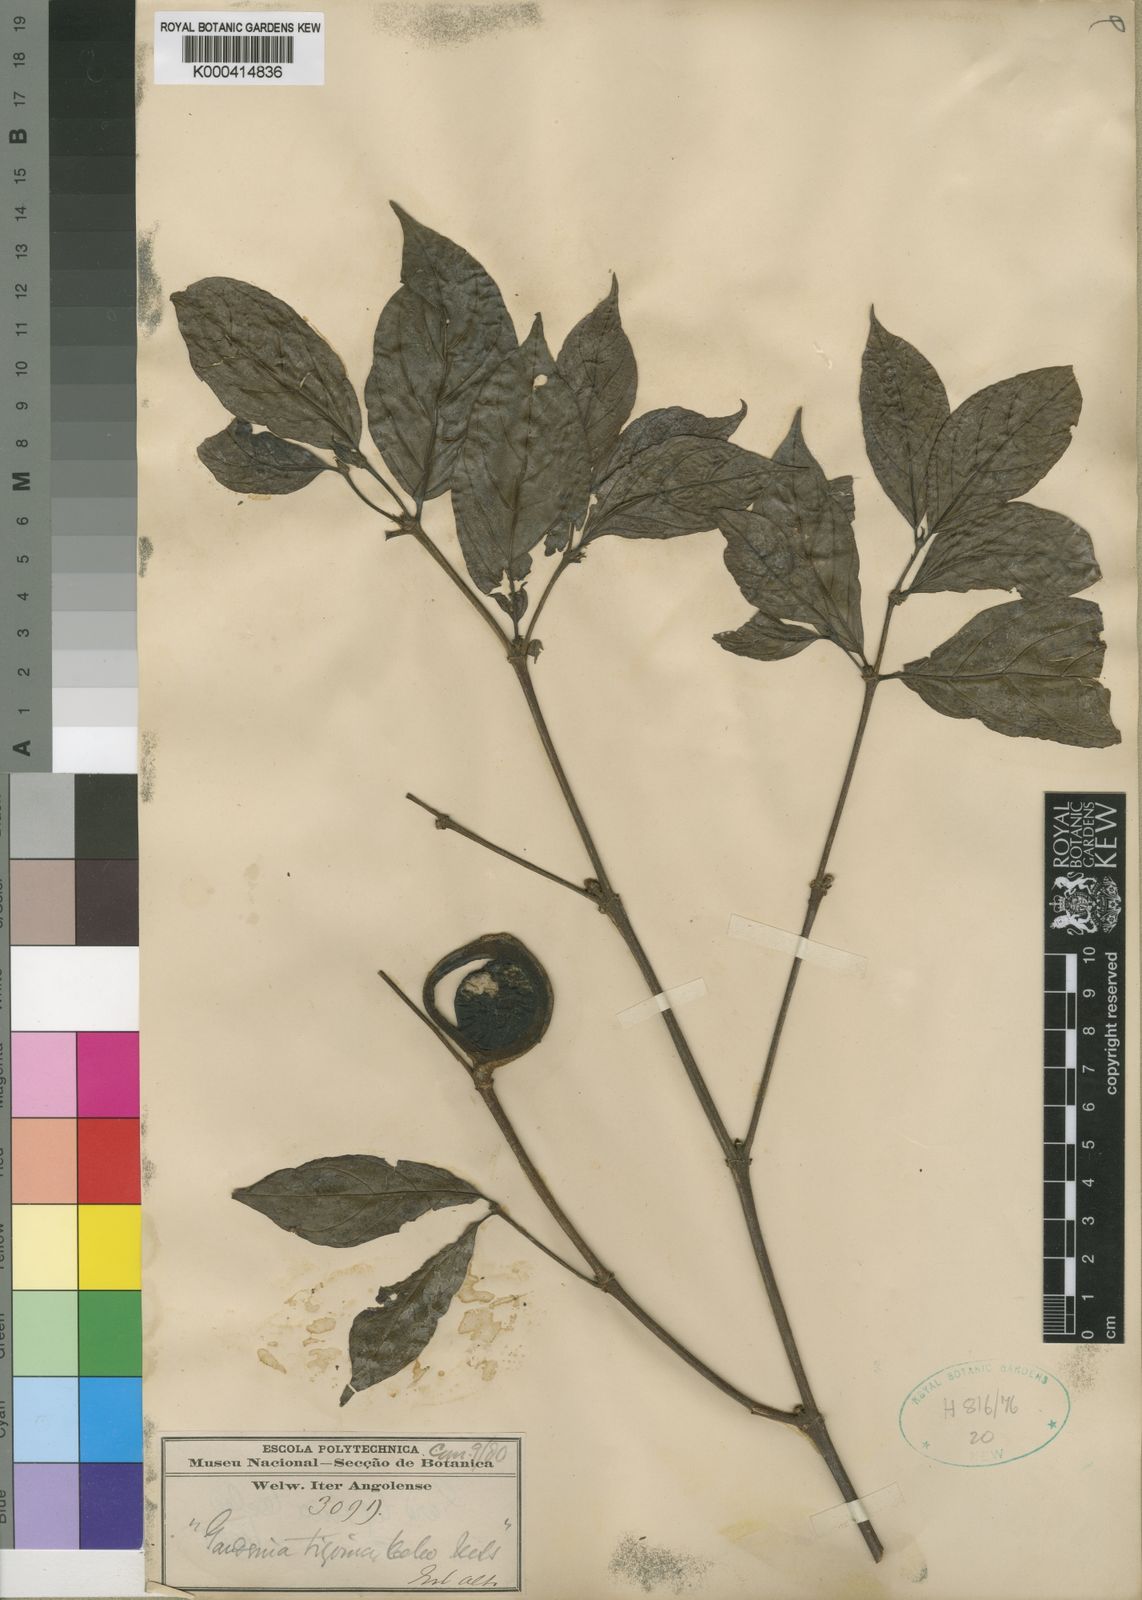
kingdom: Plantae
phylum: Tracheophyta
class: Magnoliopsida
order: Gentianales
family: Rubiaceae
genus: Rothmannia
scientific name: Rothmannia urcelliformis
